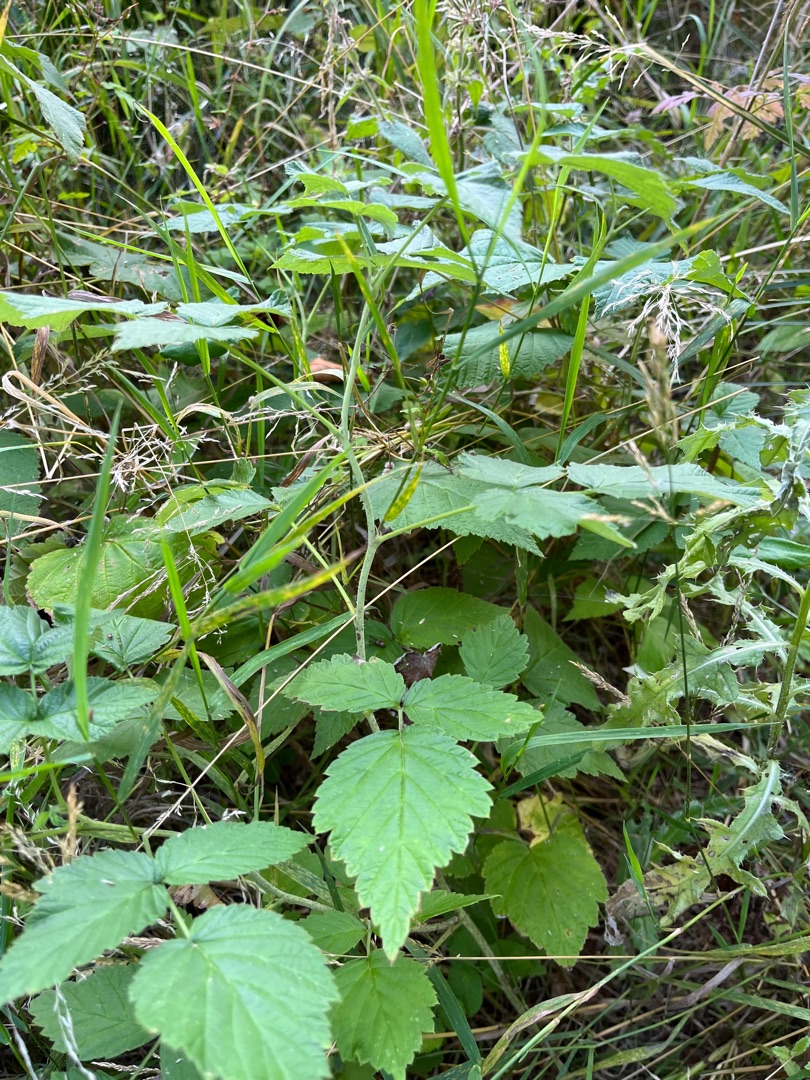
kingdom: Plantae
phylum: Tracheophyta
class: Magnoliopsida
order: Rosales
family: Rosaceae
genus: Rubus
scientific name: Rubus caesius
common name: Korbær
